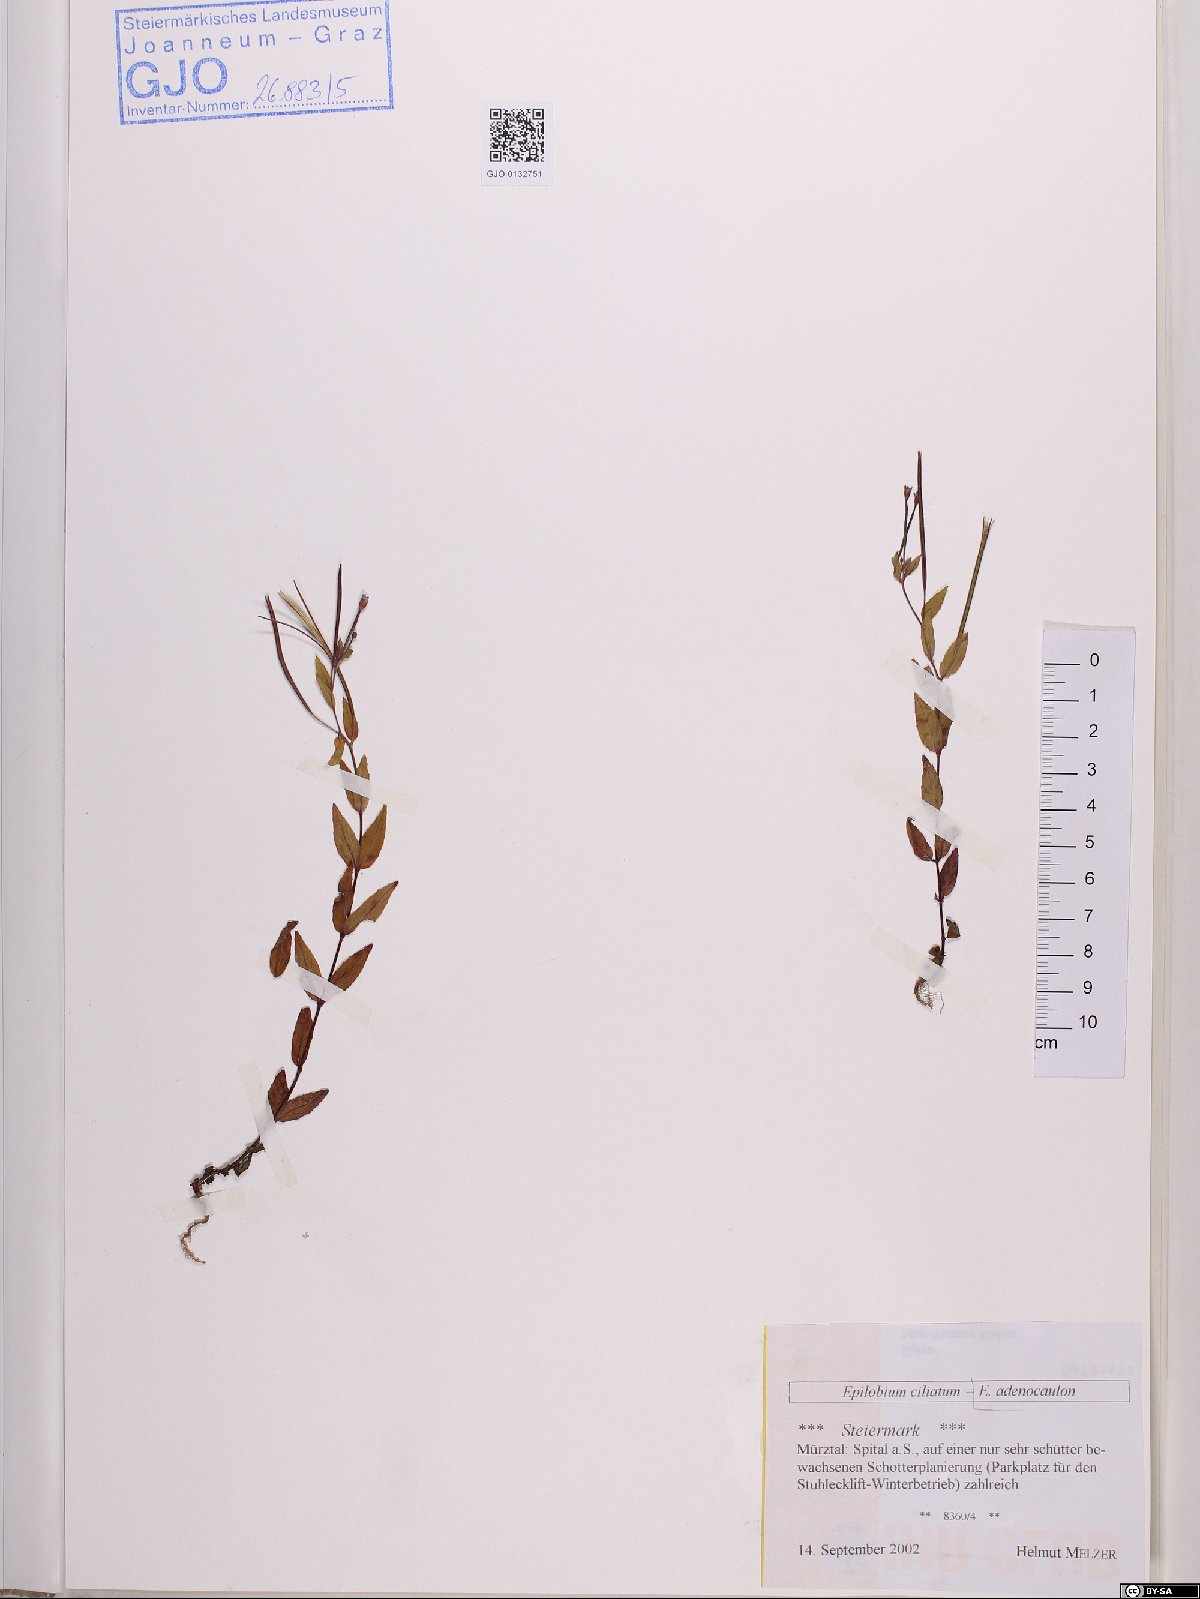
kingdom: Plantae
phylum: Tracheophyta
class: Magnoliopsida
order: Myrtales
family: Onagraceae
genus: Epilobium
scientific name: Epilobium ciliatum
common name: American willowherb
